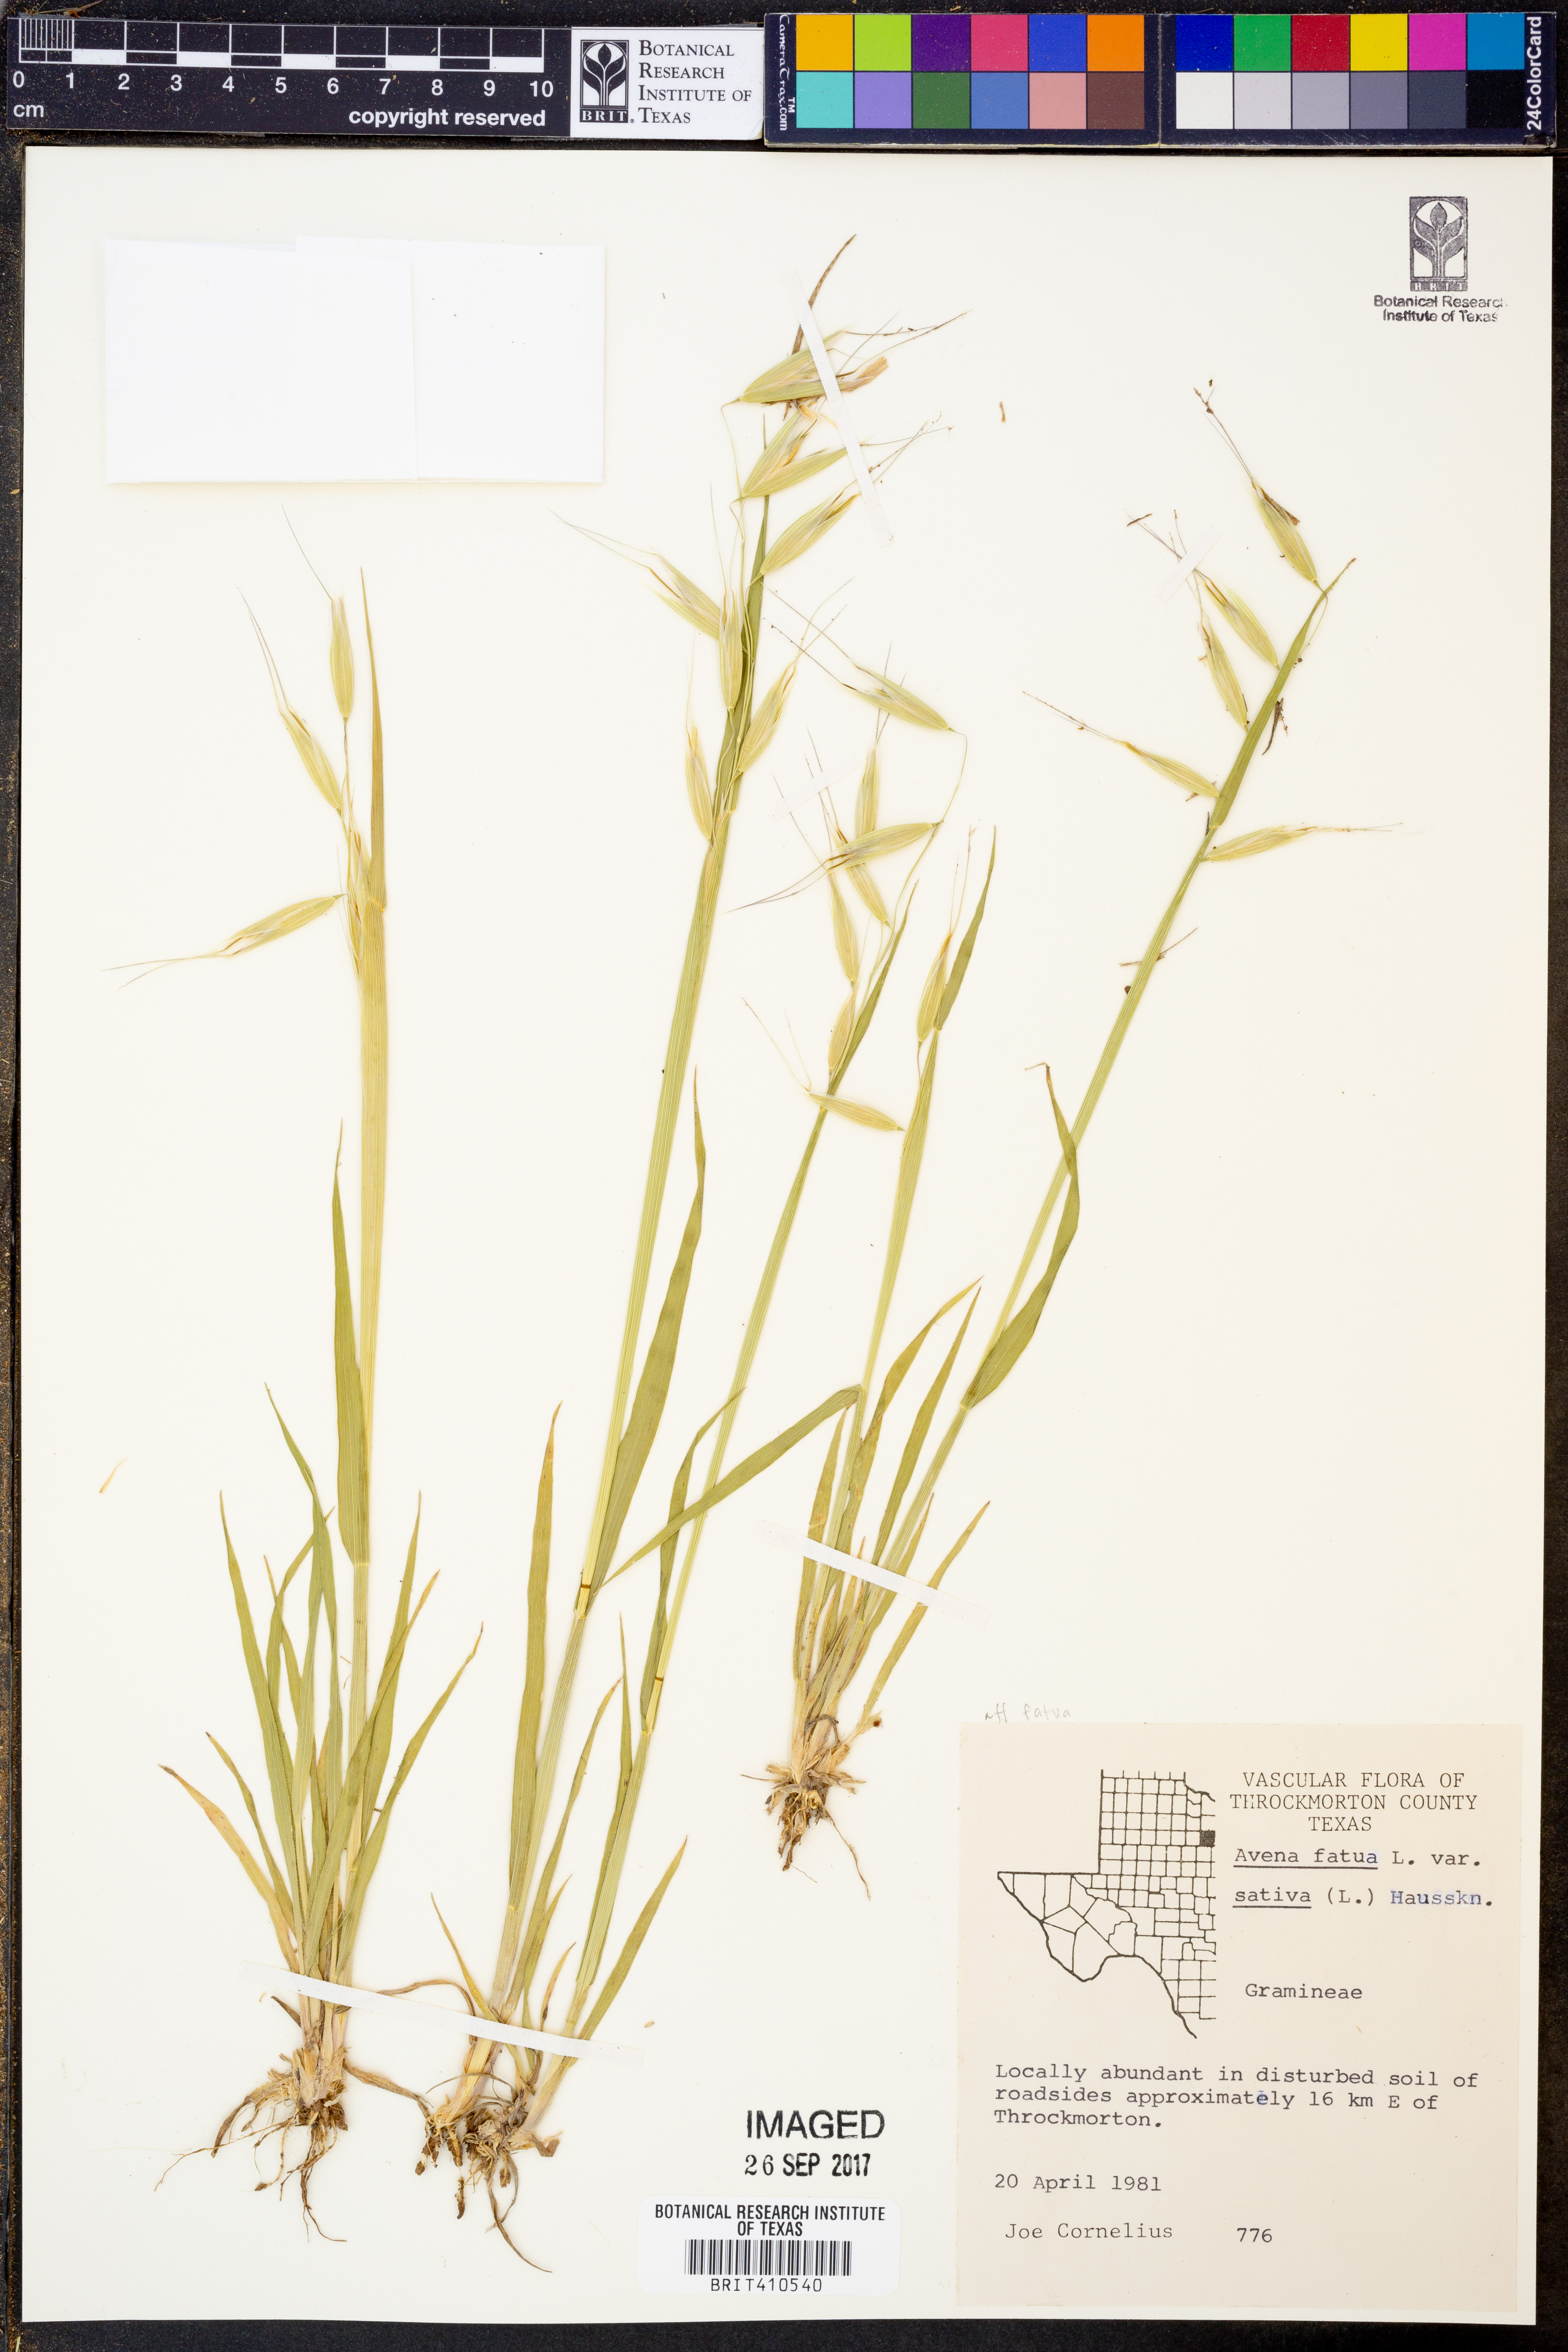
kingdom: Plantae
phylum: Tracheophyta
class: Liliopsida
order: Poales
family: Poaceae
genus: Avena
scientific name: Avena sativa
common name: Oat
